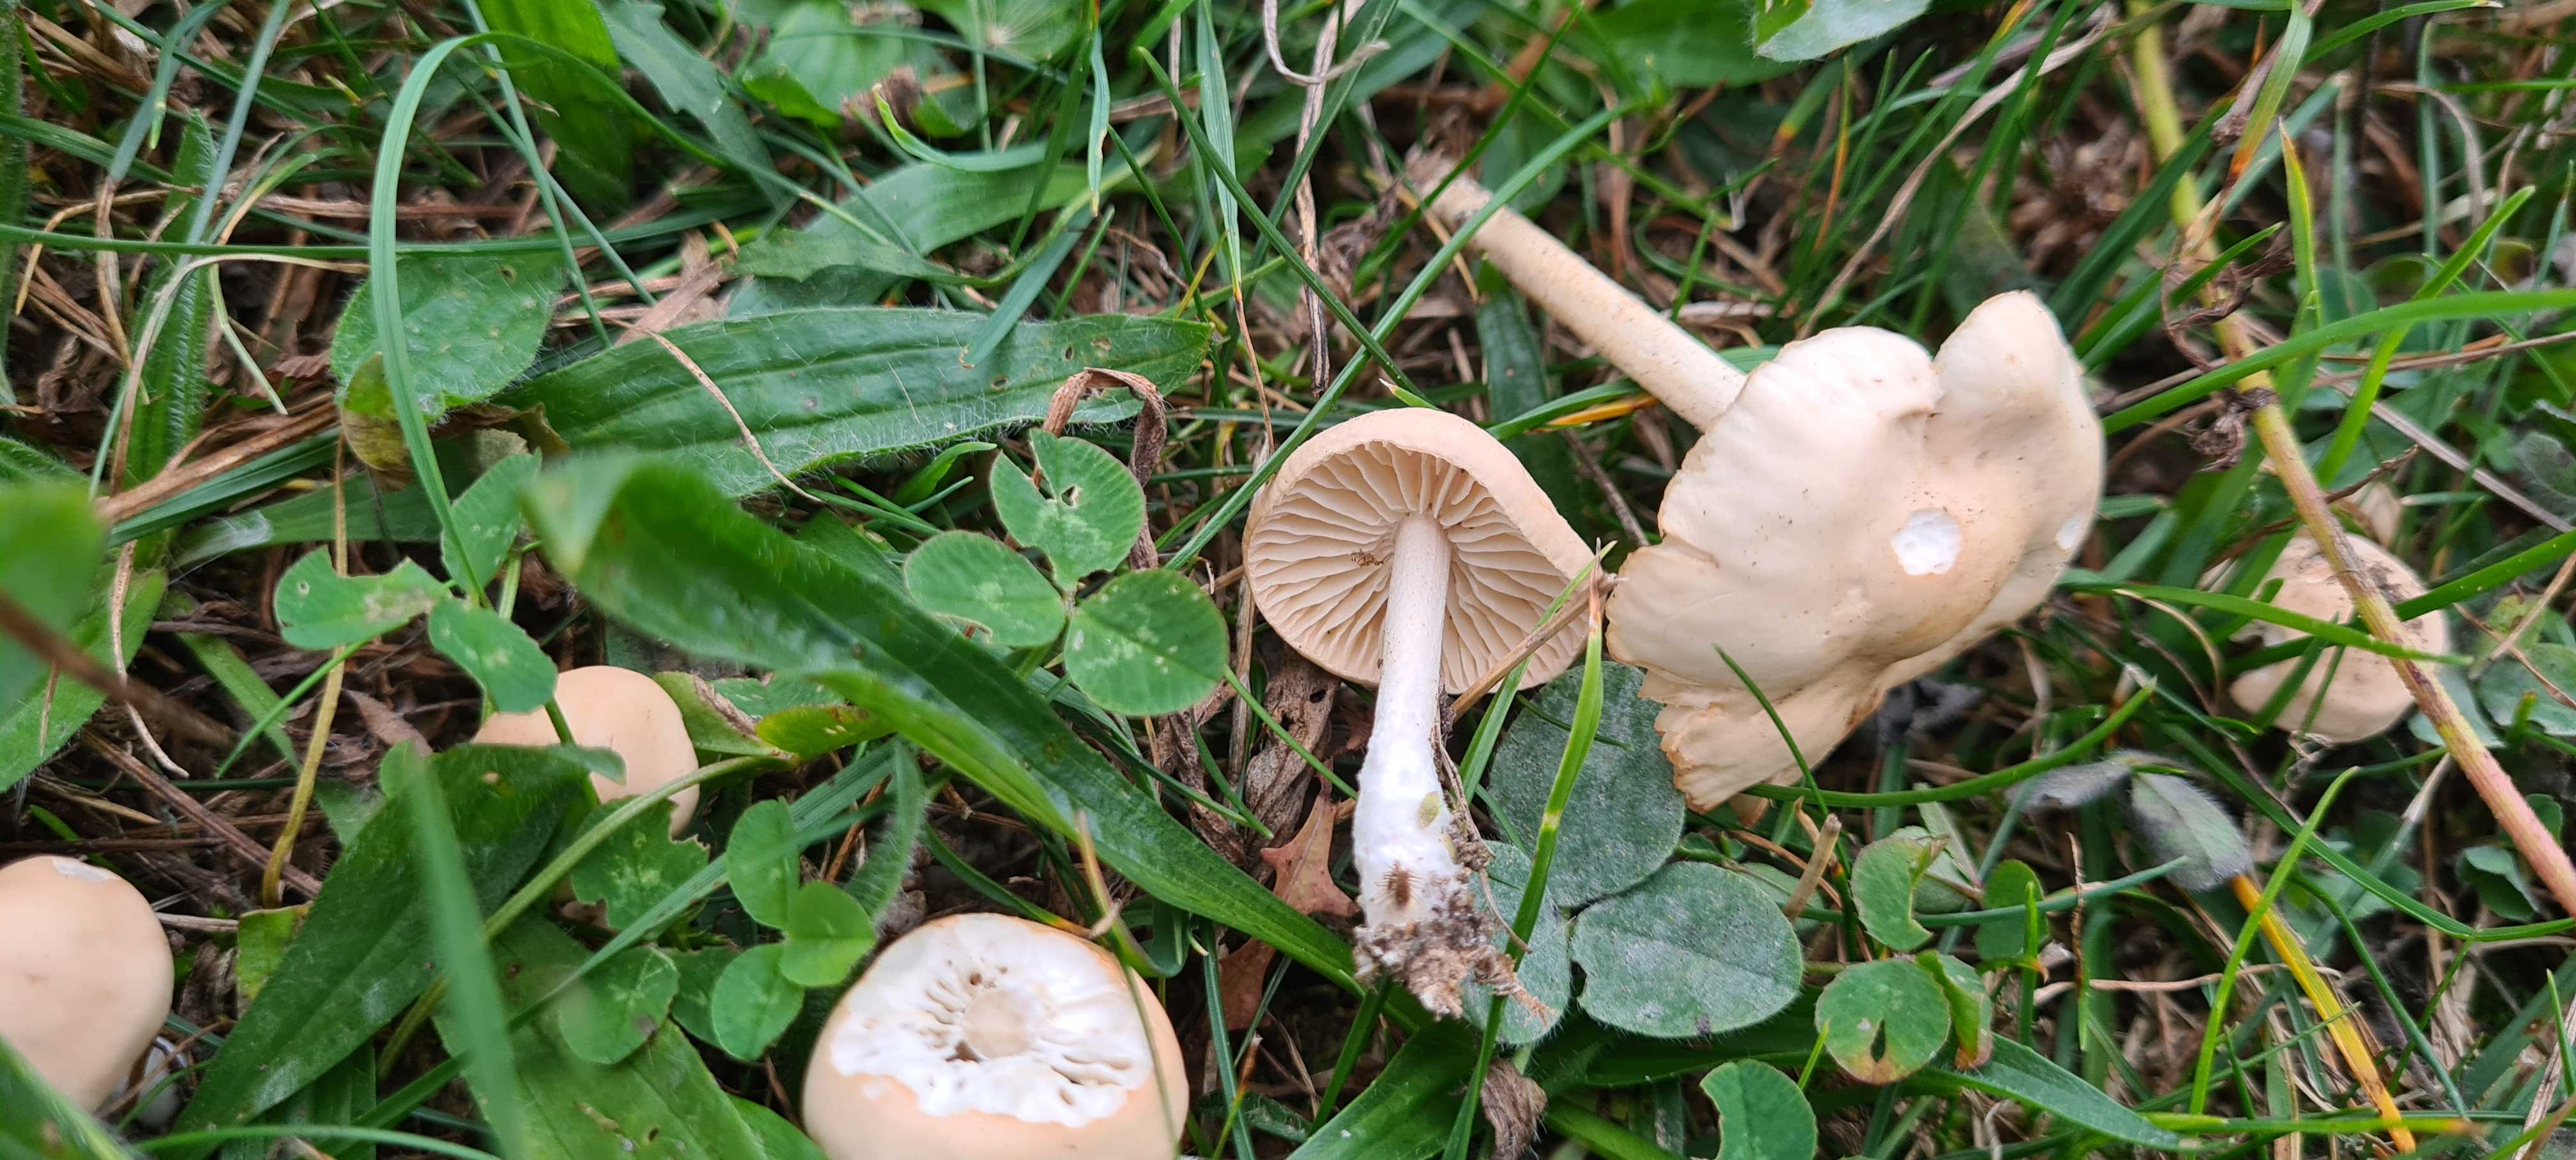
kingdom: Fungi
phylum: Basidiomycota
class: Agaricomycetes
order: Agaricales
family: Marasmiaceae
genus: Marasmius
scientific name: Marasmius oreades
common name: elledans-bruskhat
